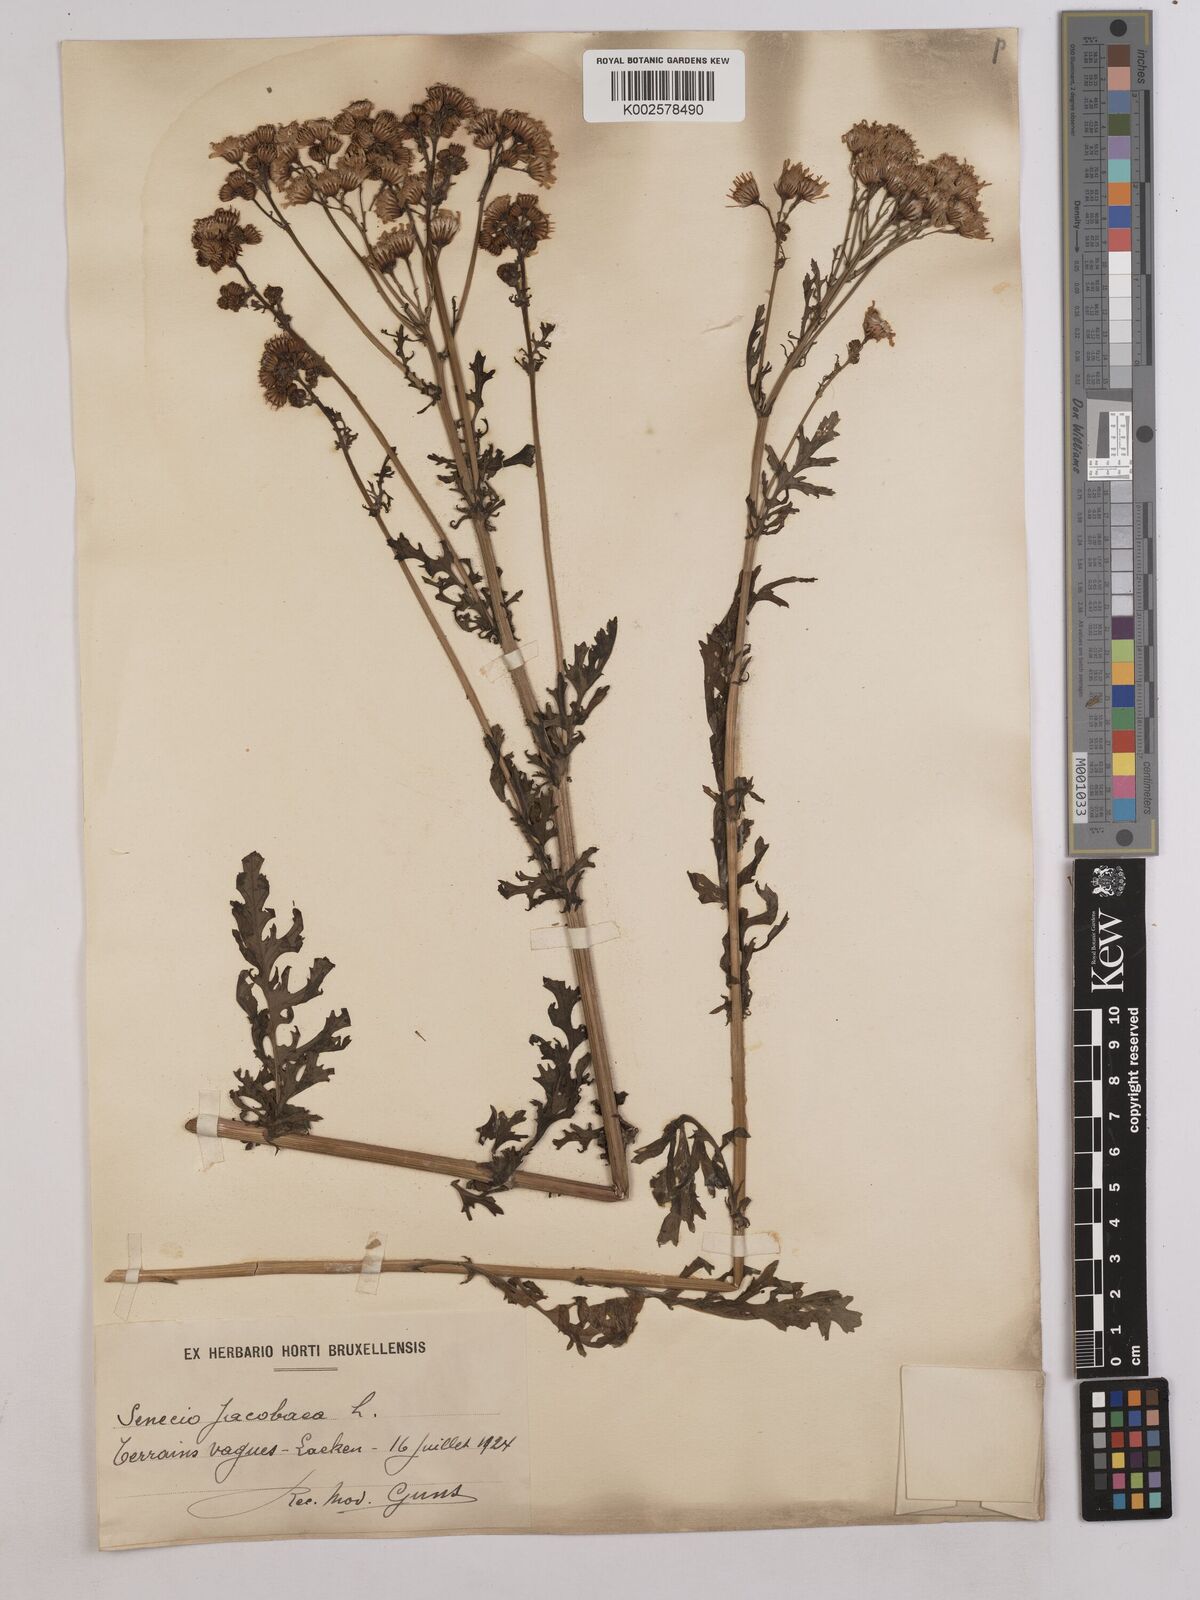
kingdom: Plantae
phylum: Tracheophyta
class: Magnoliopsida
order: Asterales
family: Asteraceae
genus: Jacobaea
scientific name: Jacobaea vulgaris
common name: Stinking willie
